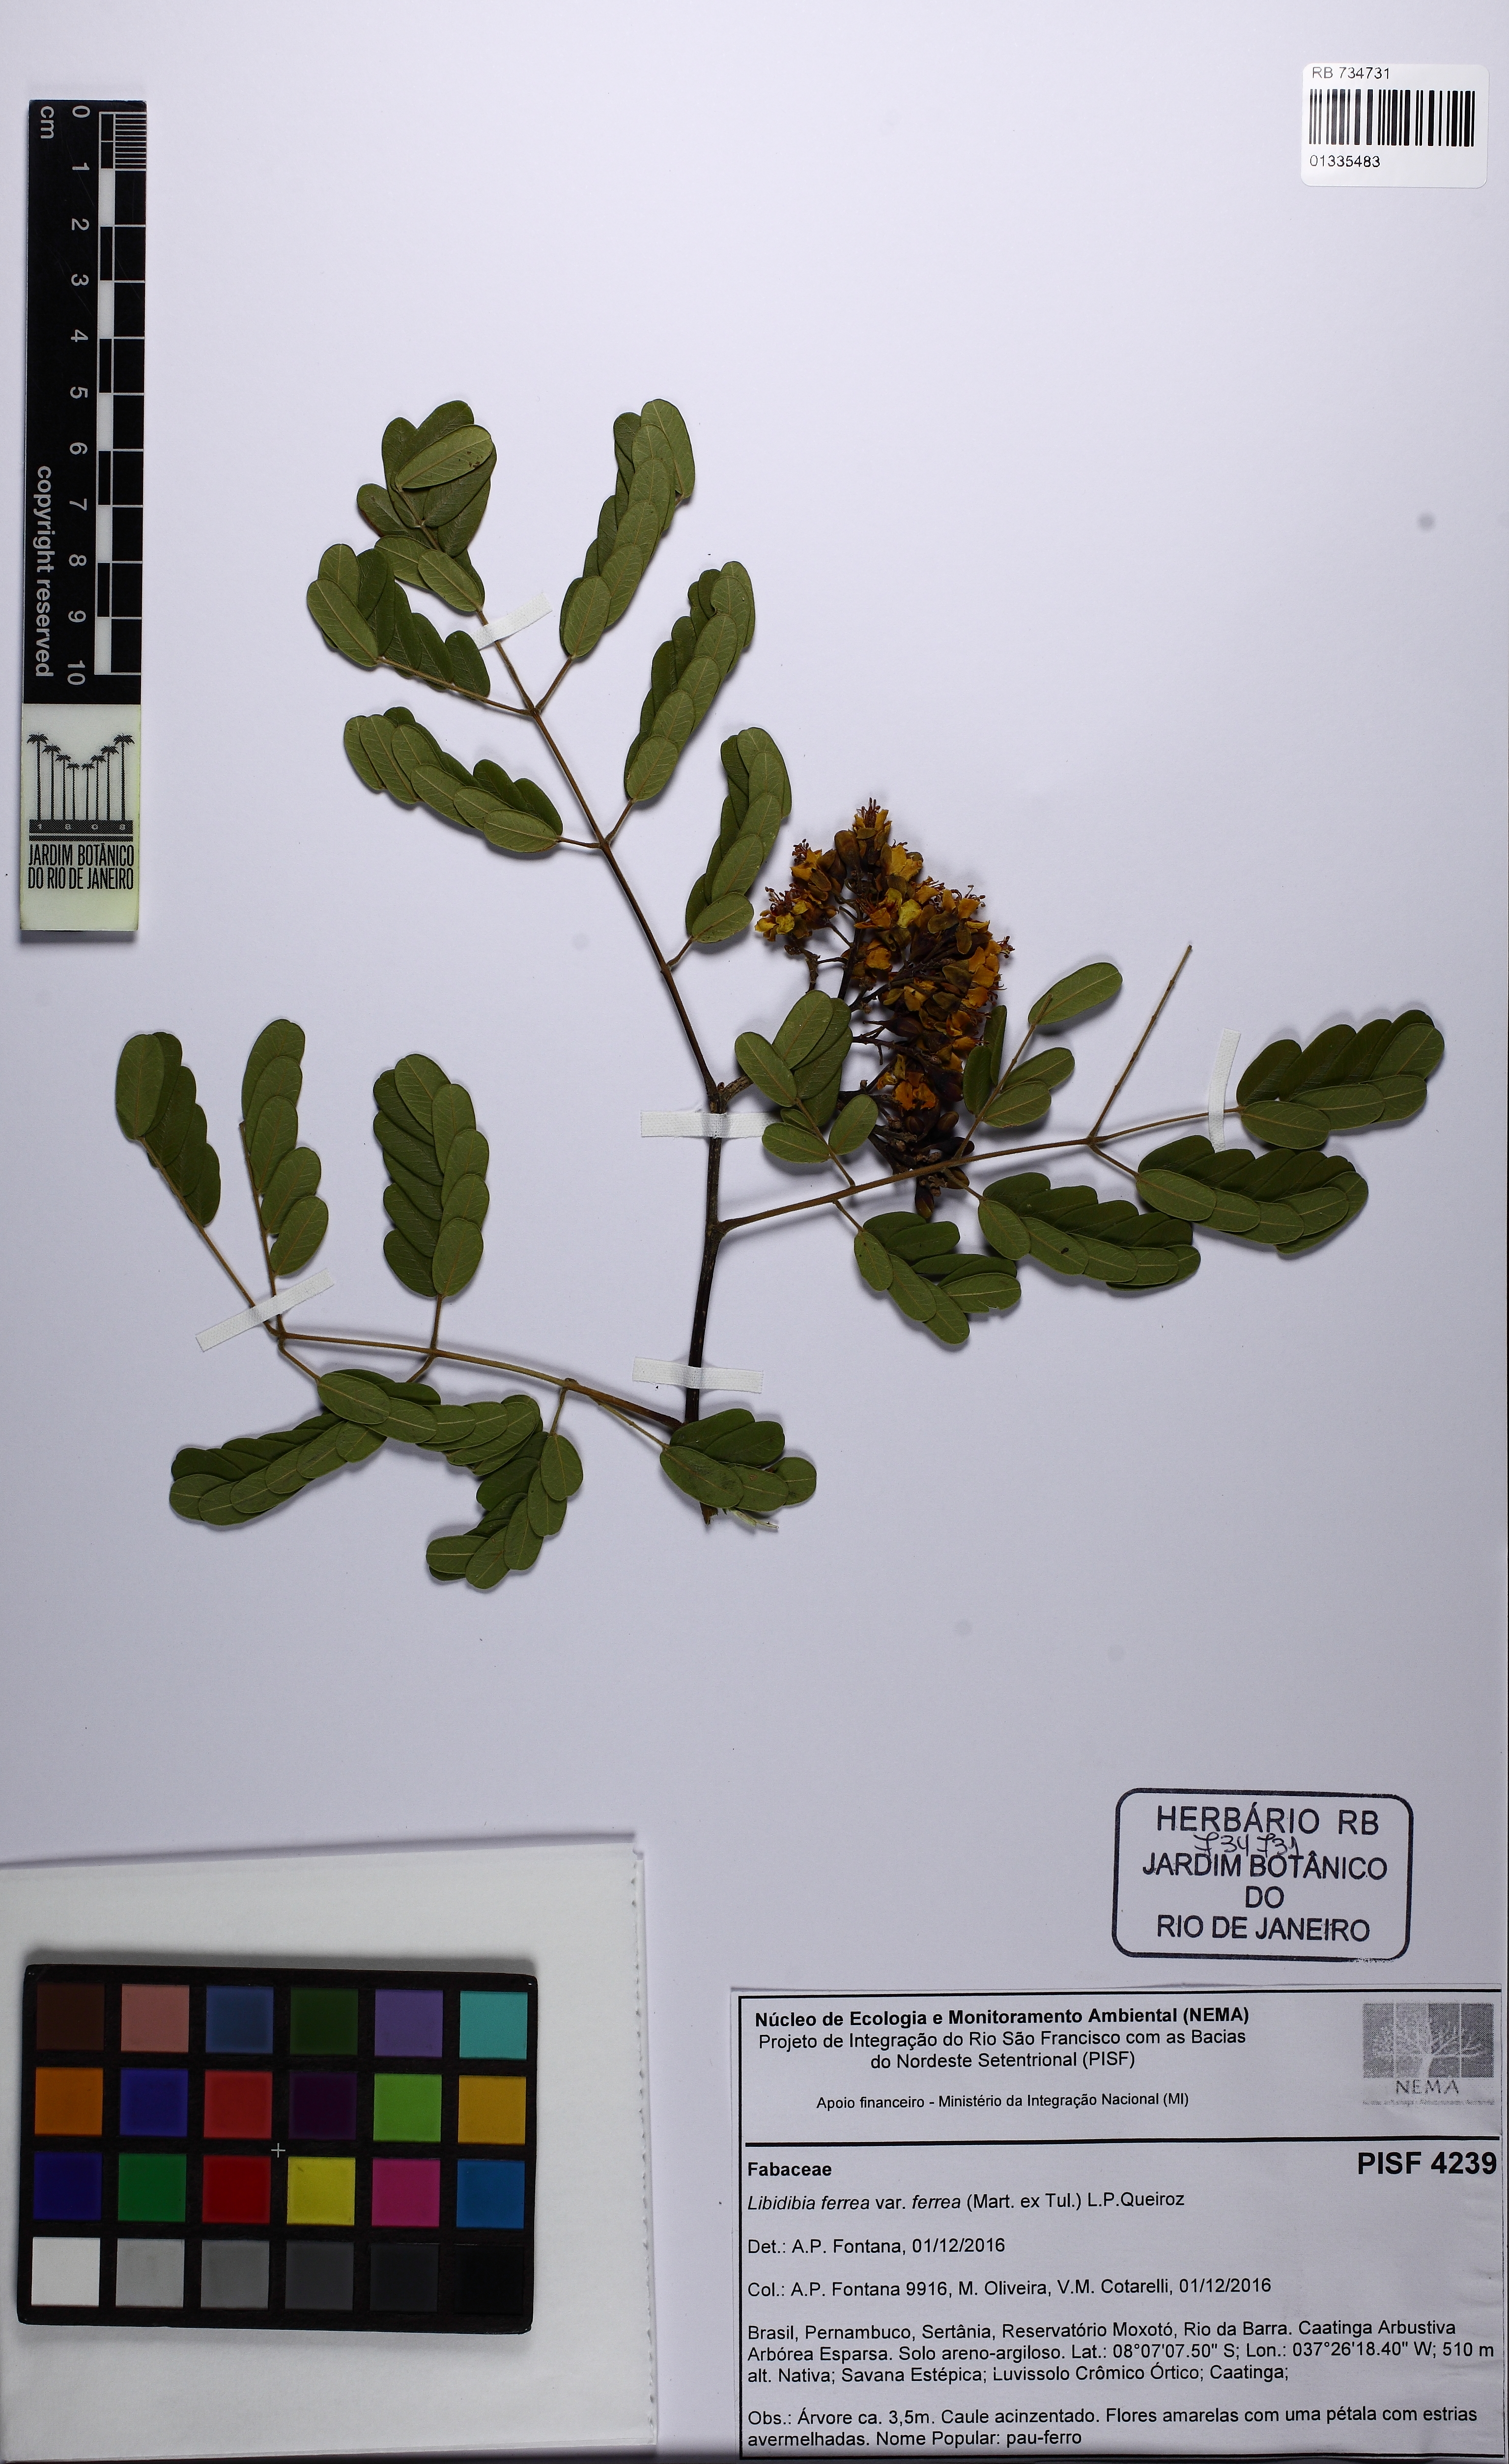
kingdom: Plantae
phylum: Tracheophyta
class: Magnoliopsida
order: Fabales
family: Fabaceae
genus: Libidibia
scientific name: Libidibia ferrea
